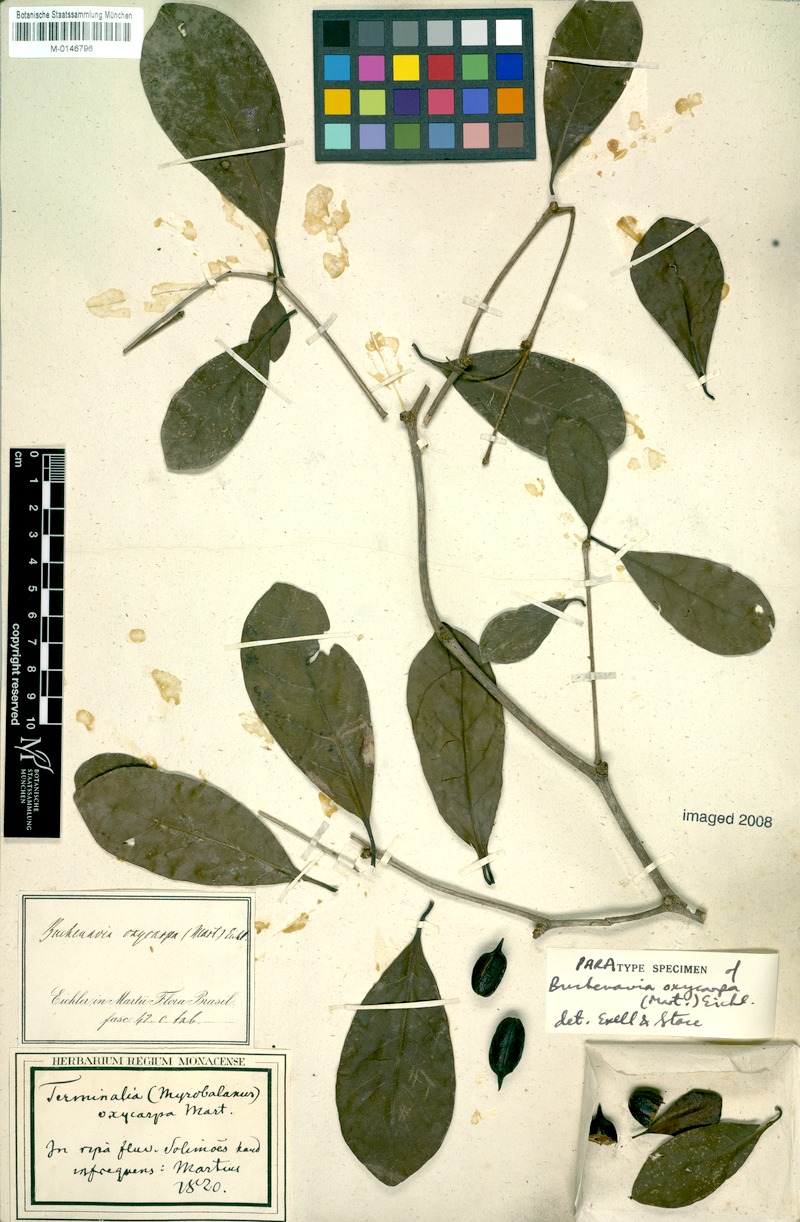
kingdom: Plantae
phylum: Tracheophyta
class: Magnoliopsida
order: Myrtales
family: Combretaceae
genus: Terminalia
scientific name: Terminalia oxycarpa
